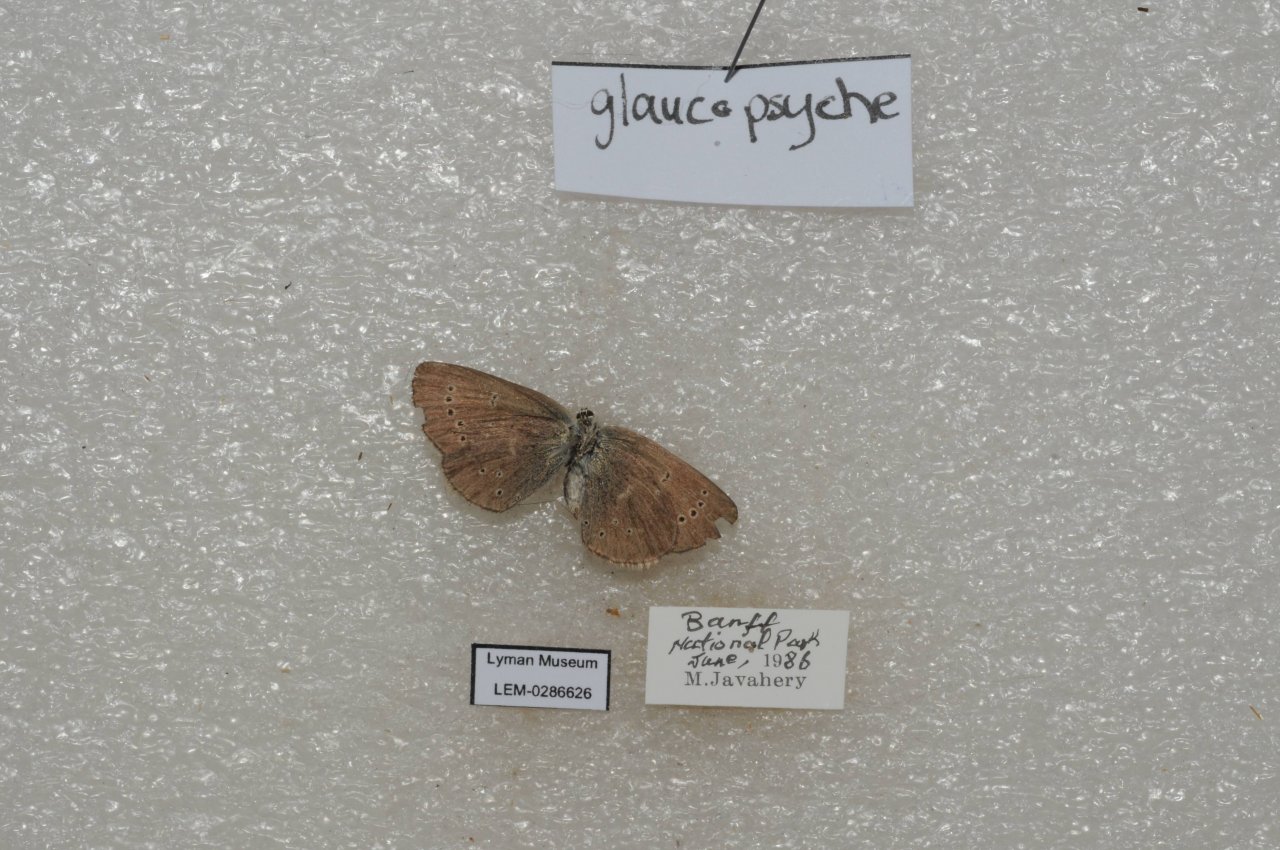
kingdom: Animalia
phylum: Arthropoda
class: Insecta
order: Lepidoptera
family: Lycaenidae
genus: Glaucopsyche
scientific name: Glaucopsyche lygdamus
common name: Silvery Blue
